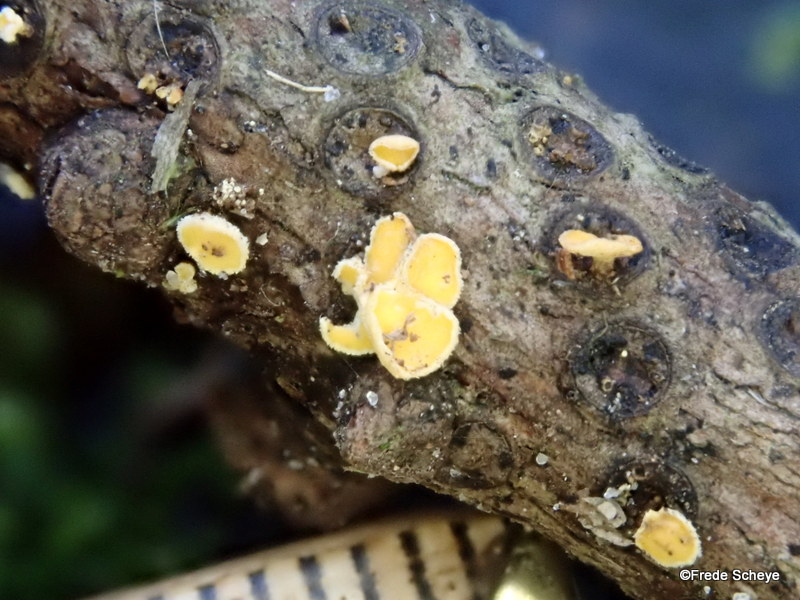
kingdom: Fungi
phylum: Ascomycota
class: Leotiomycetes
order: Helotiales
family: Lachnaceae
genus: Lachnellula
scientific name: Lachnellula subtilissima
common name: gran-frynseskive
